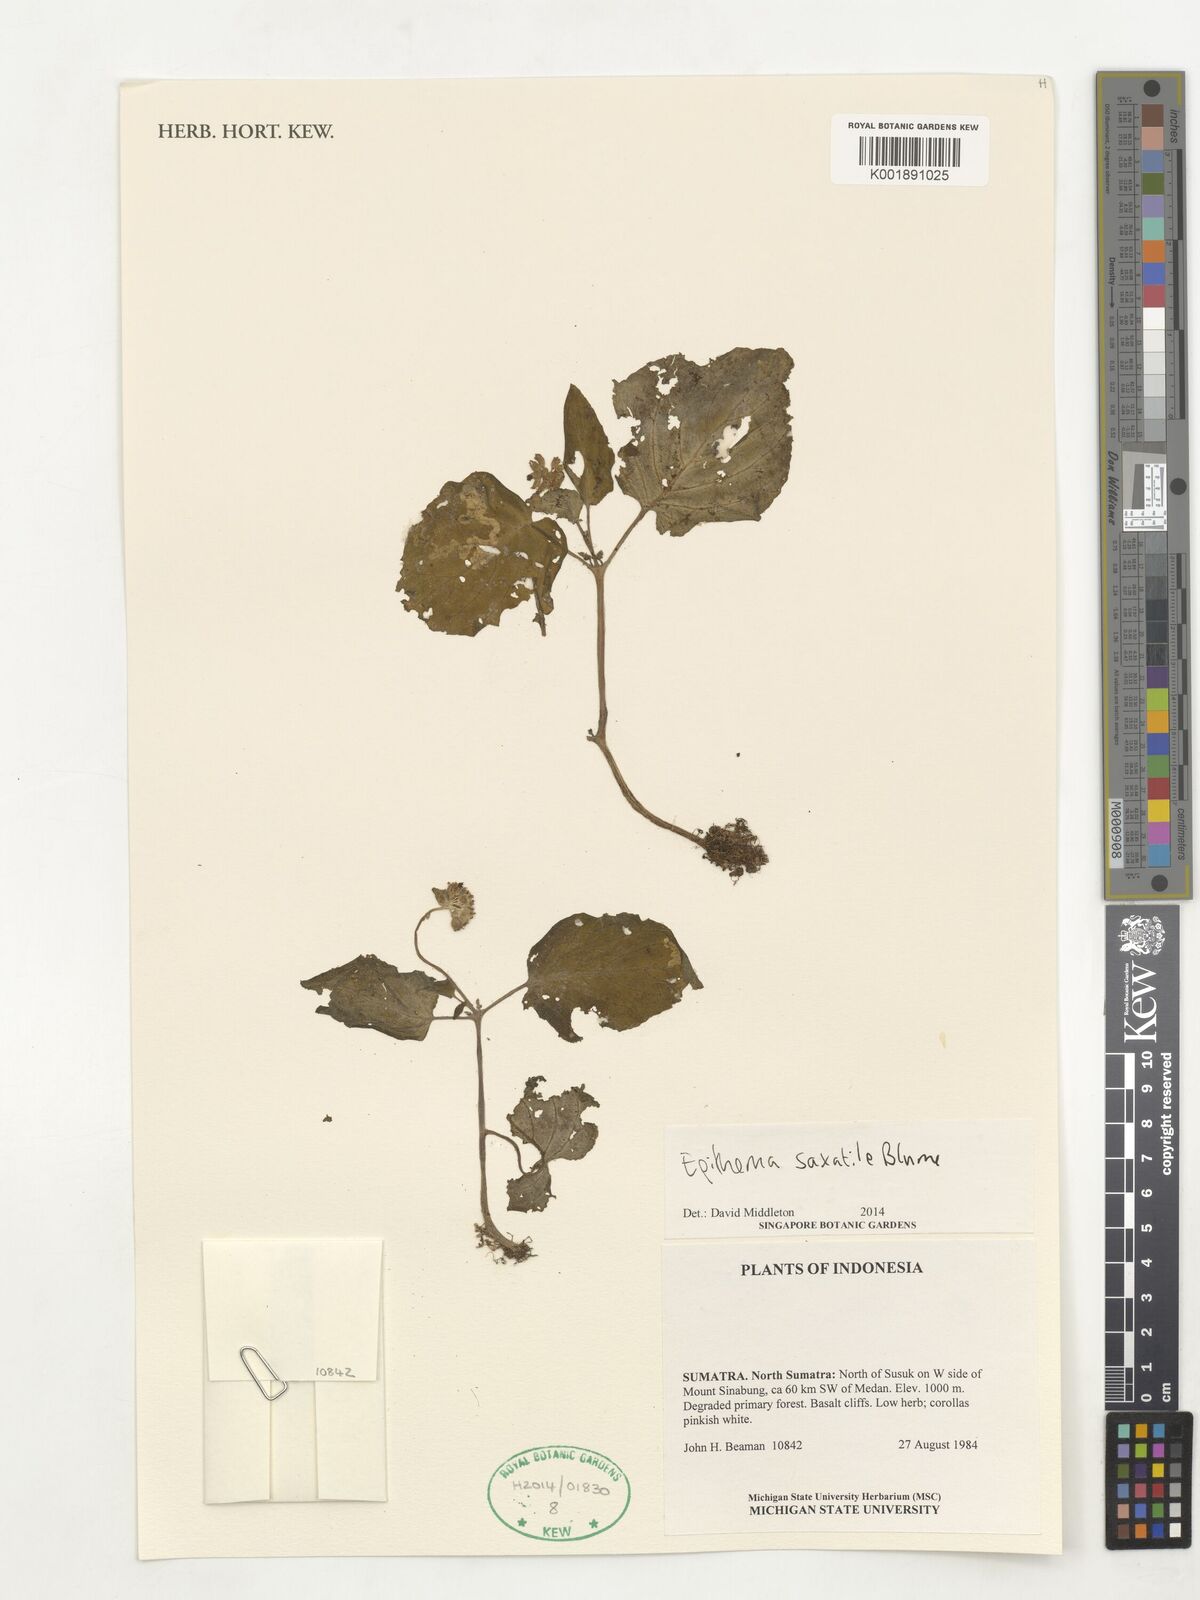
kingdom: Plantae
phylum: Tracheophyta
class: Magnoliopsida
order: Lamiales
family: Gesneriaceae
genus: Epithema
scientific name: Epithema saxatile
